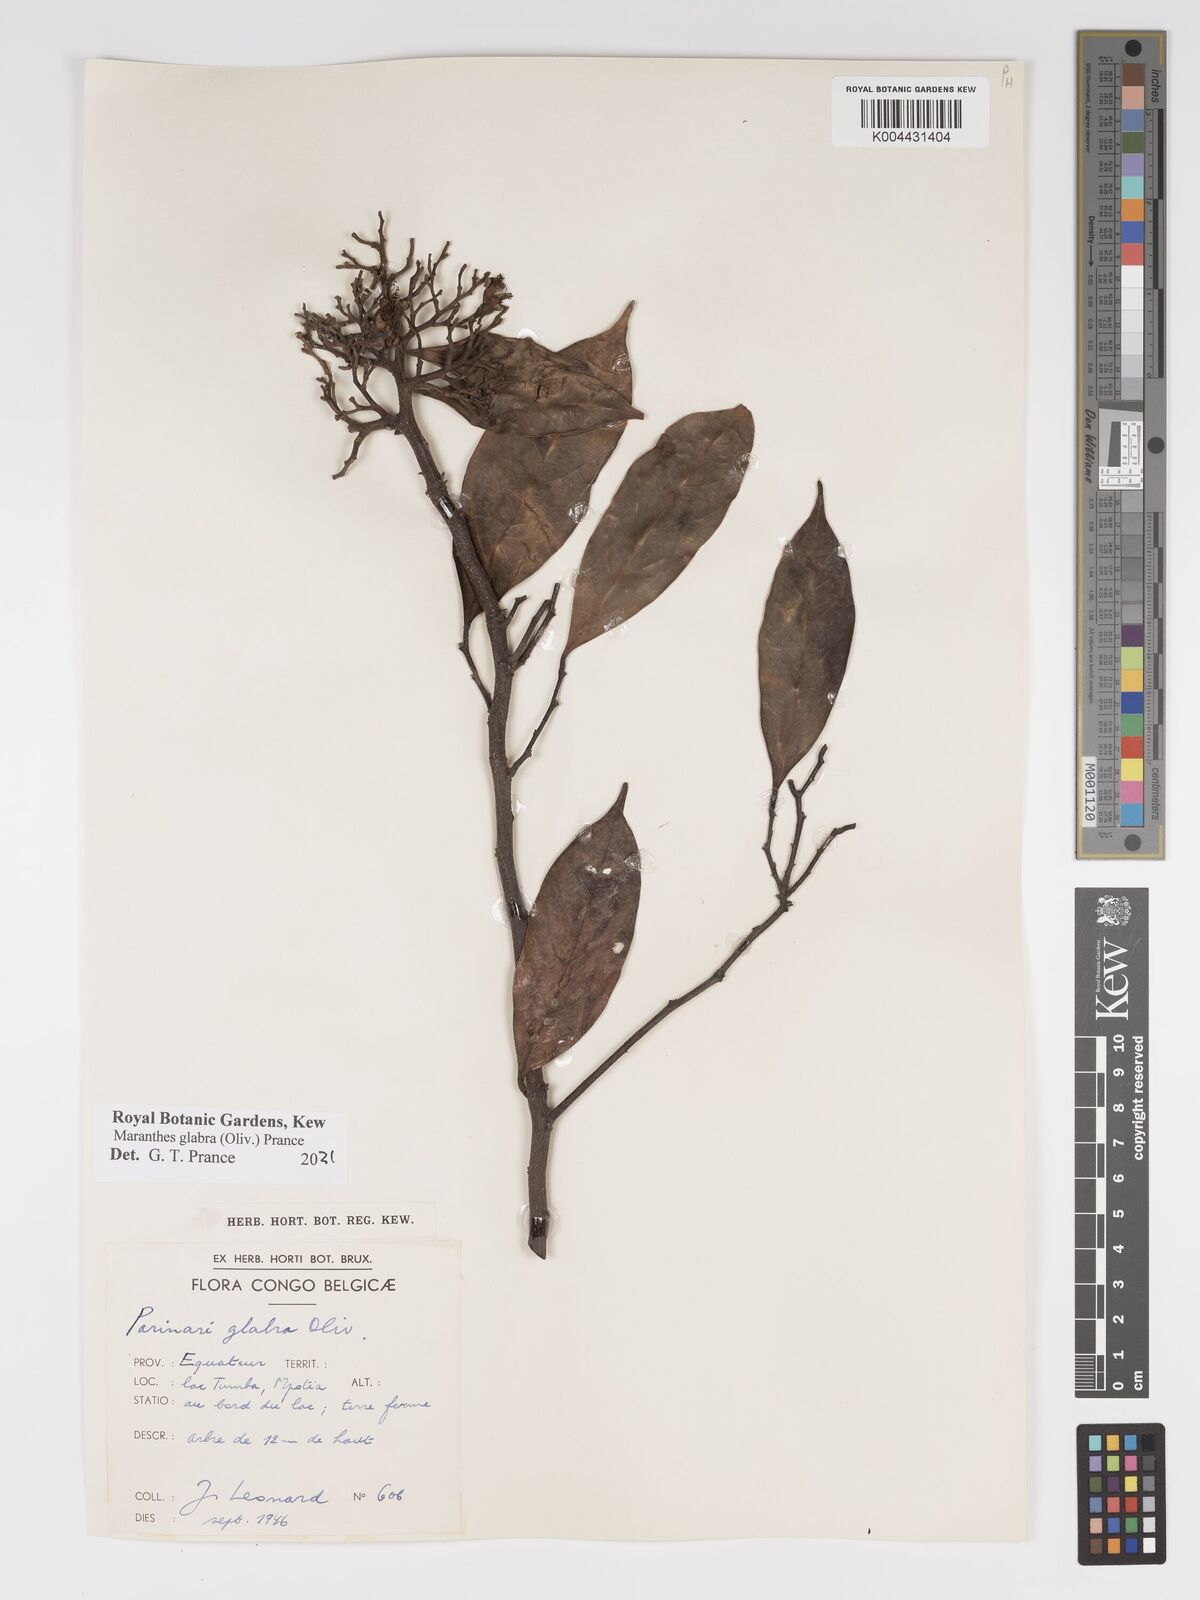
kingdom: Plantae
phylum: Tracheophyta
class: Magnoliopsida
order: Malpighiales
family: Chrysobalanaceae
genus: Maranthes
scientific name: Maranthes glabra
